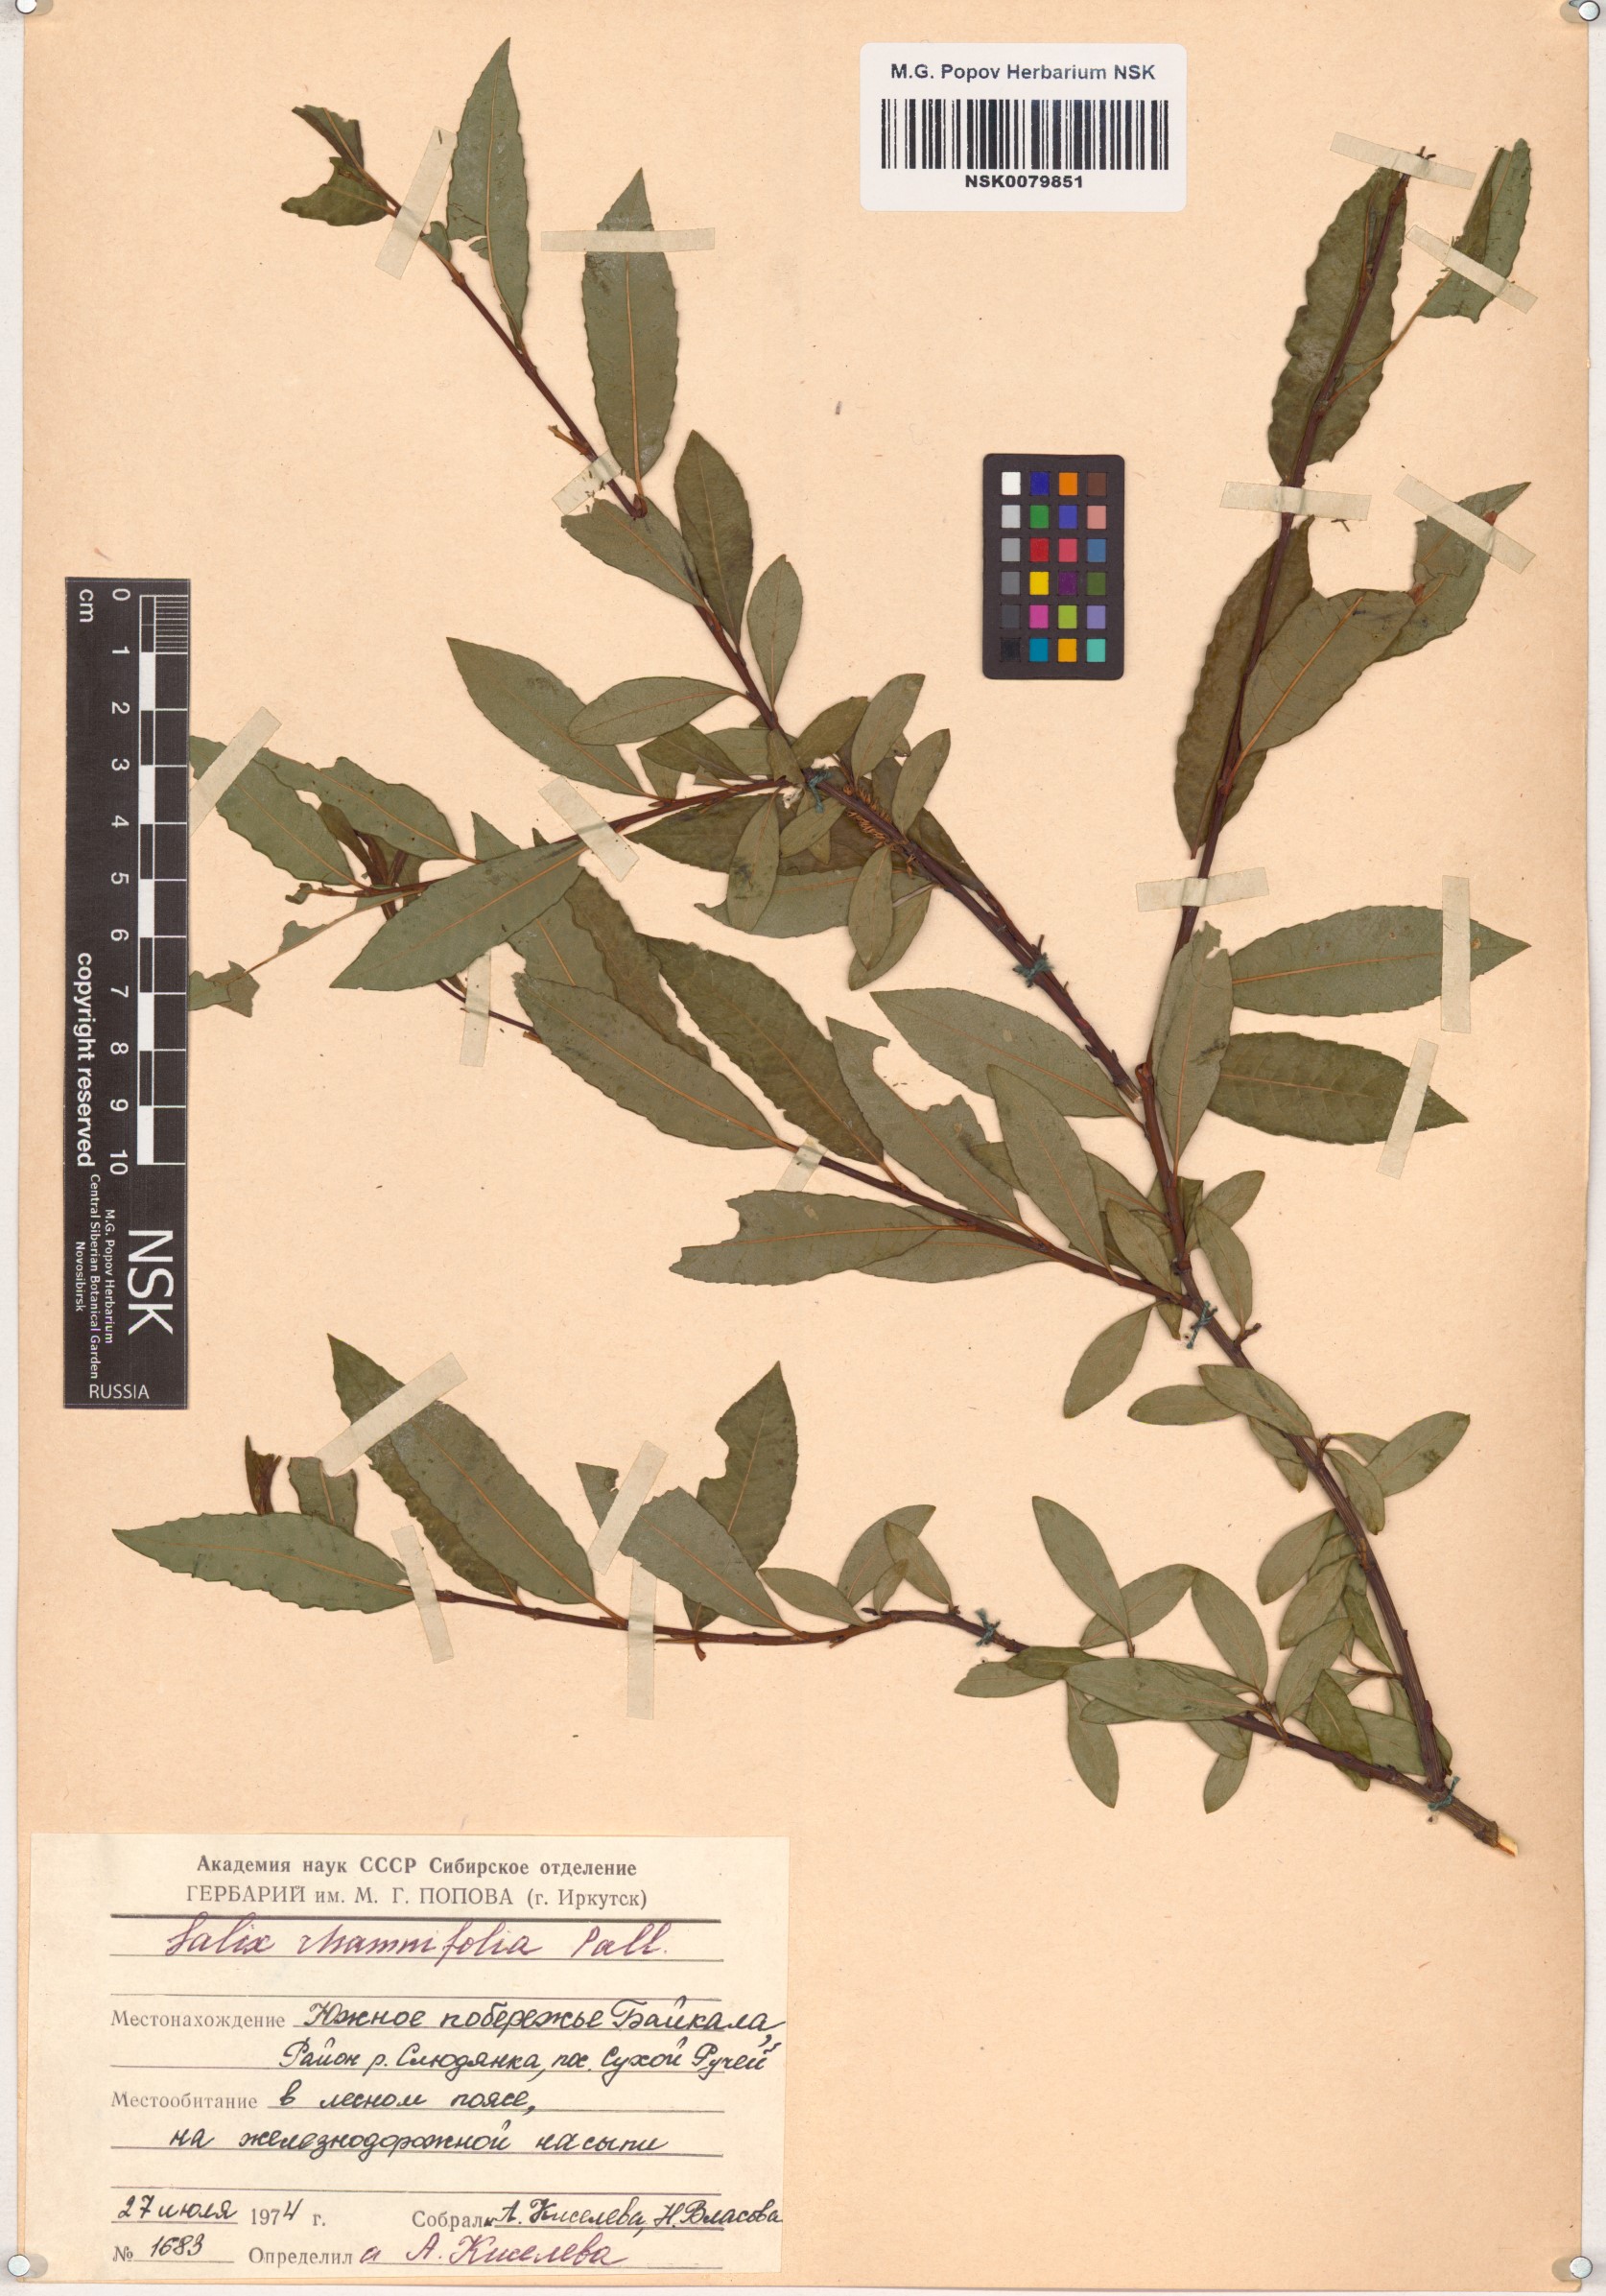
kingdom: Plantae
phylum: Tracheophyta
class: Magnoliopsida
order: Malpighiales
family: Salicaceae
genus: Salix
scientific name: Salix rhamnifolia
